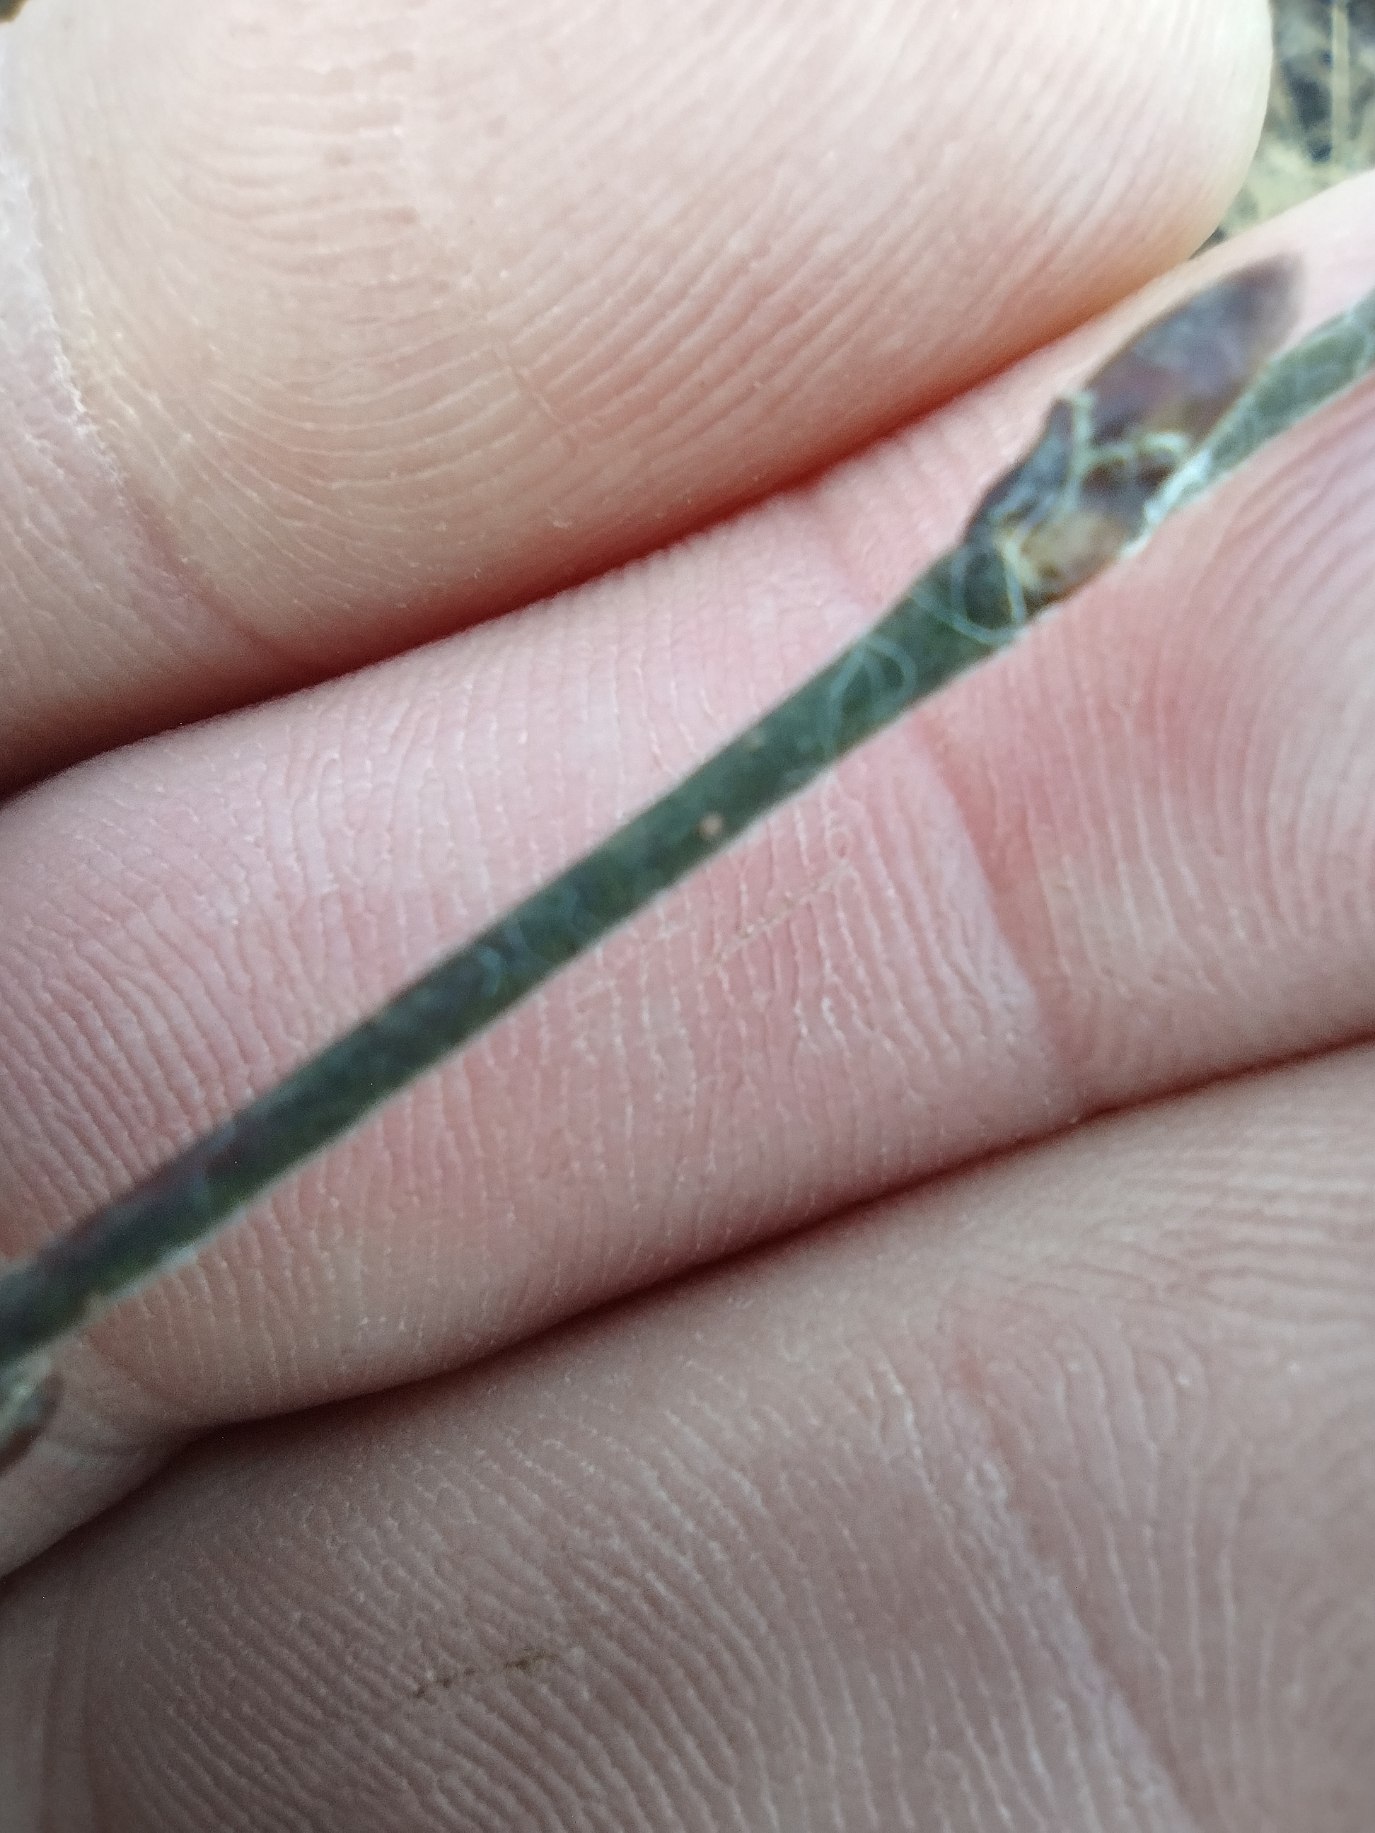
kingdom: Plantae
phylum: Tracheophyta
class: Magnoliopsida
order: Fagales
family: Betulaceae
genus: Betula
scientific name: Betula pubescens
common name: Dun-birk
